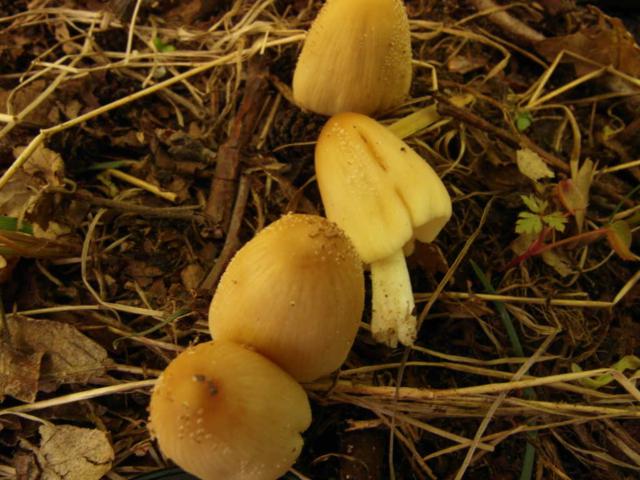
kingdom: Fungi
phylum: Basidiomycota
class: Agaricomycetes
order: Agaricales
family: Psathyrellaceae
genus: Coprinellus
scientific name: Coprinellus domesticus
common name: hus-blækhat
